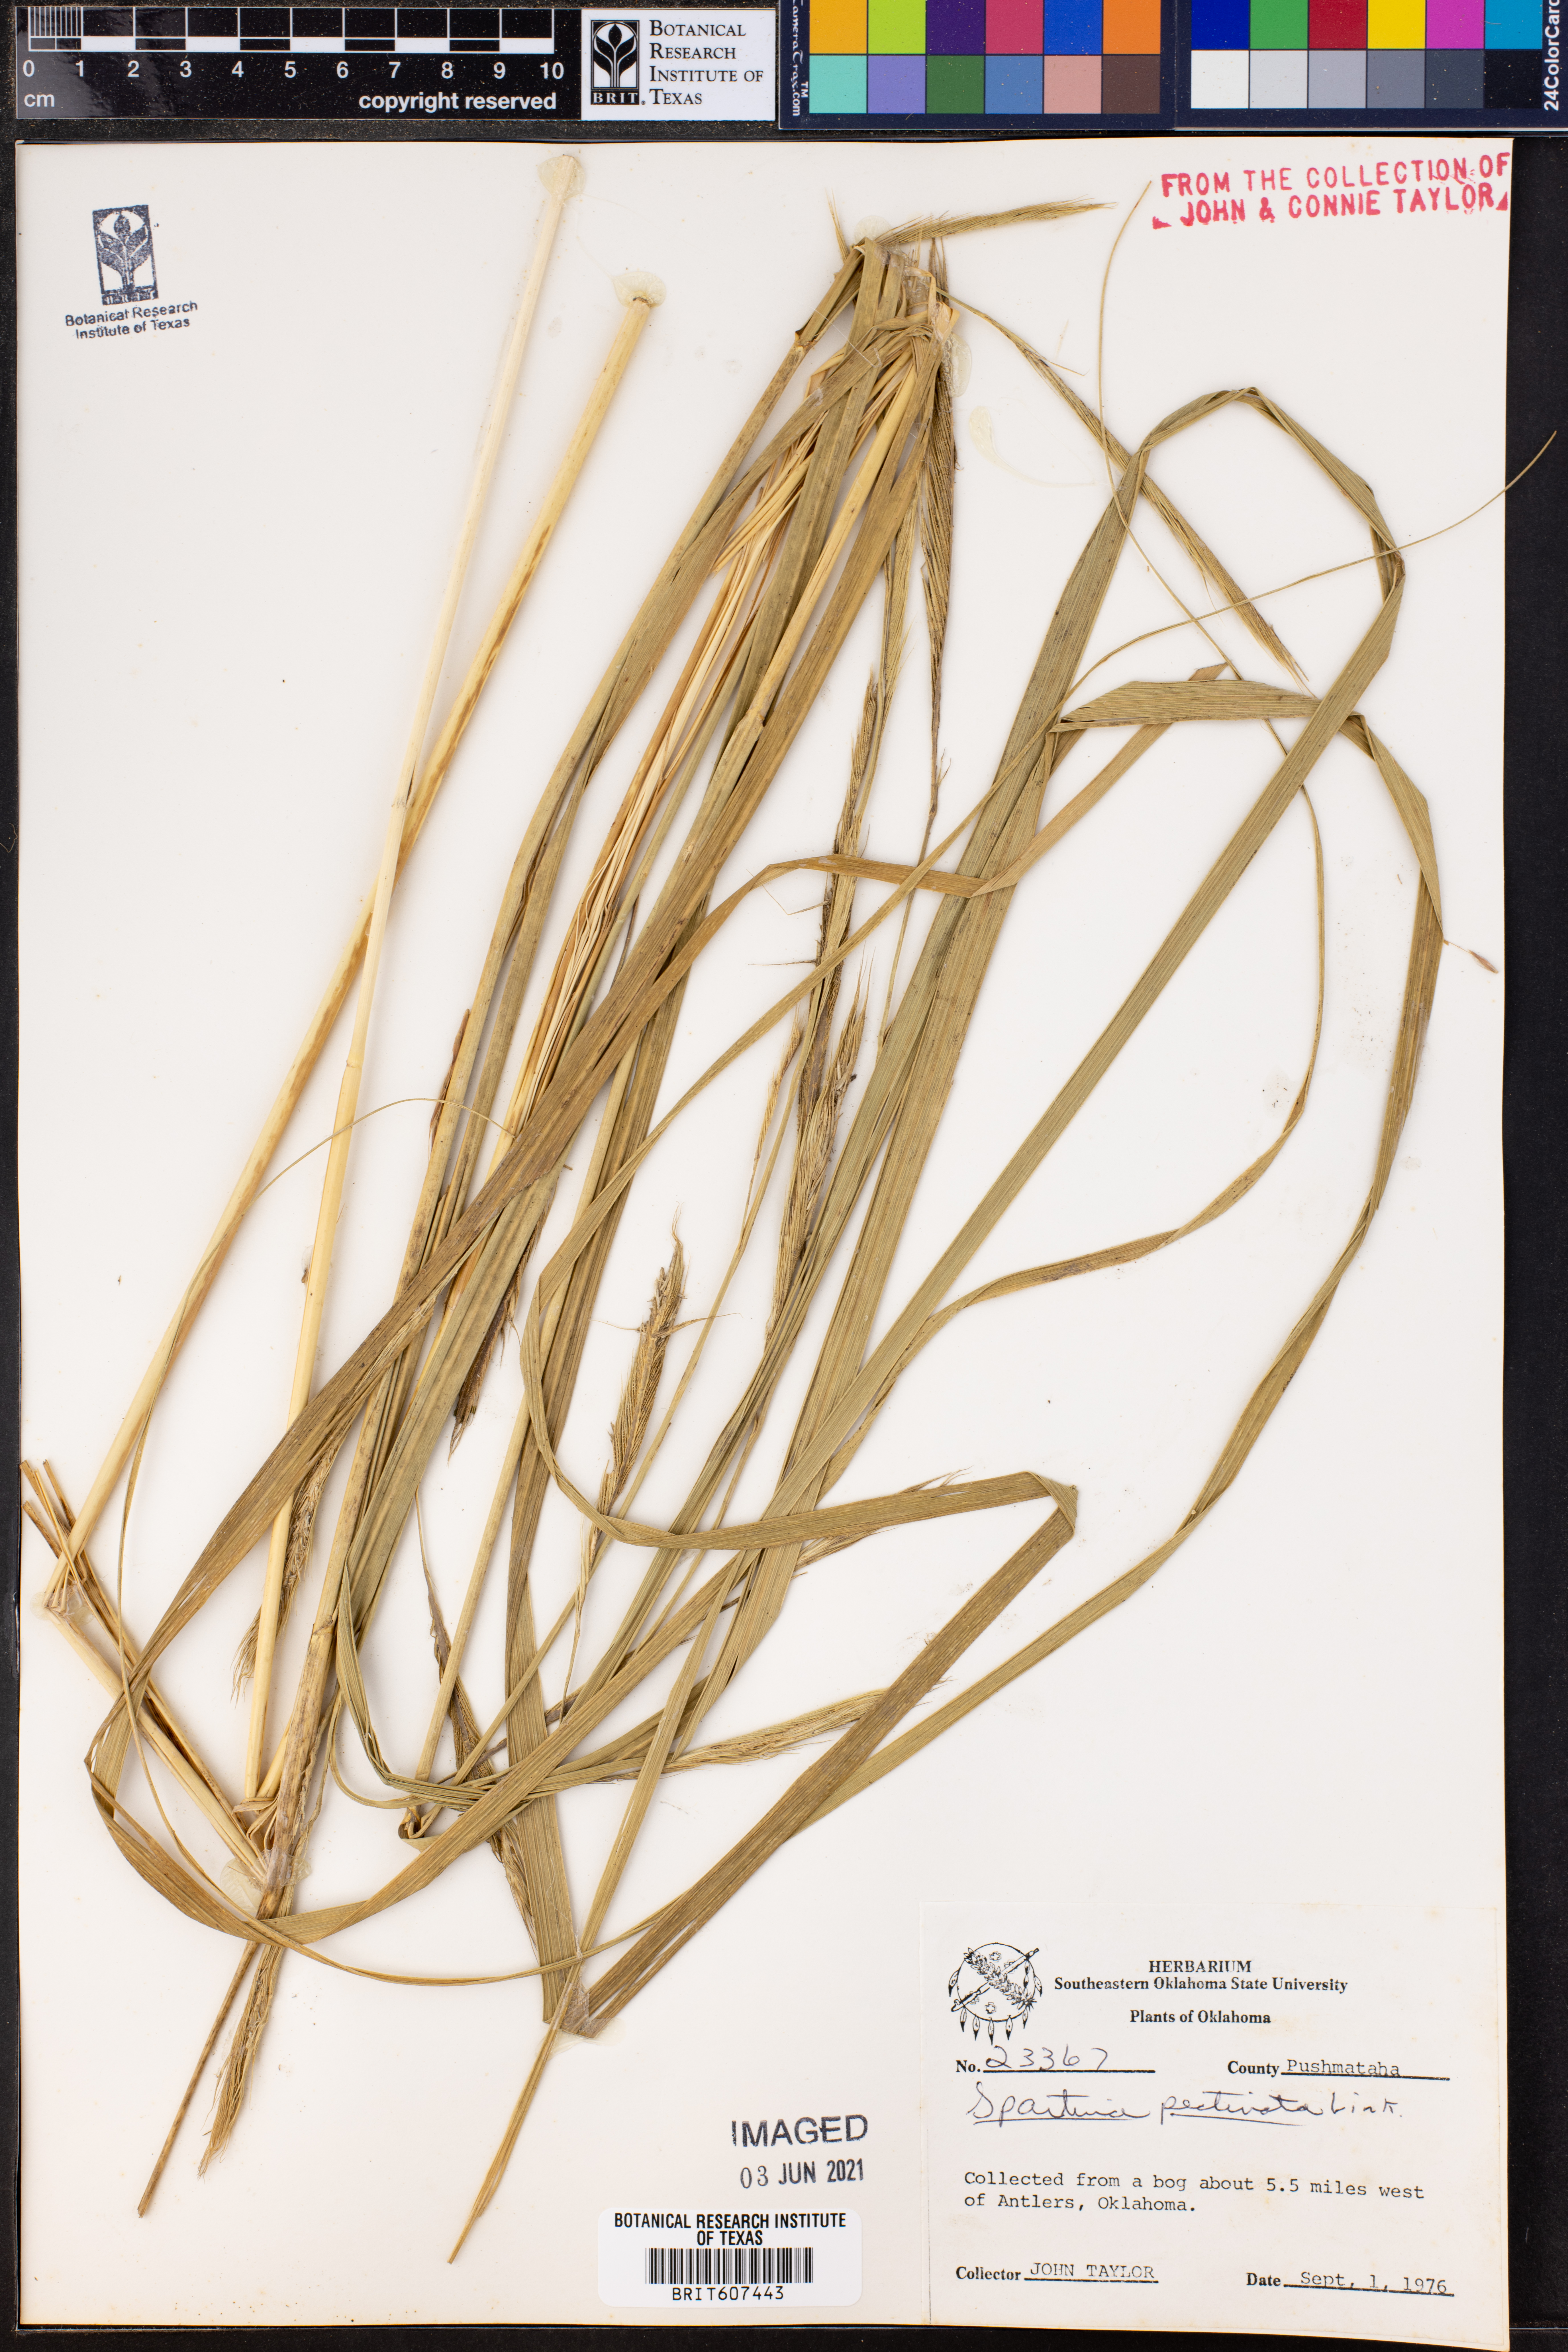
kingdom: Plantae
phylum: Tracheophyta
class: Liliopsida
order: Poales
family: Poaceae
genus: Sporobolus
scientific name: Sporobolus michauxianus
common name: Freshwater cordgrass
